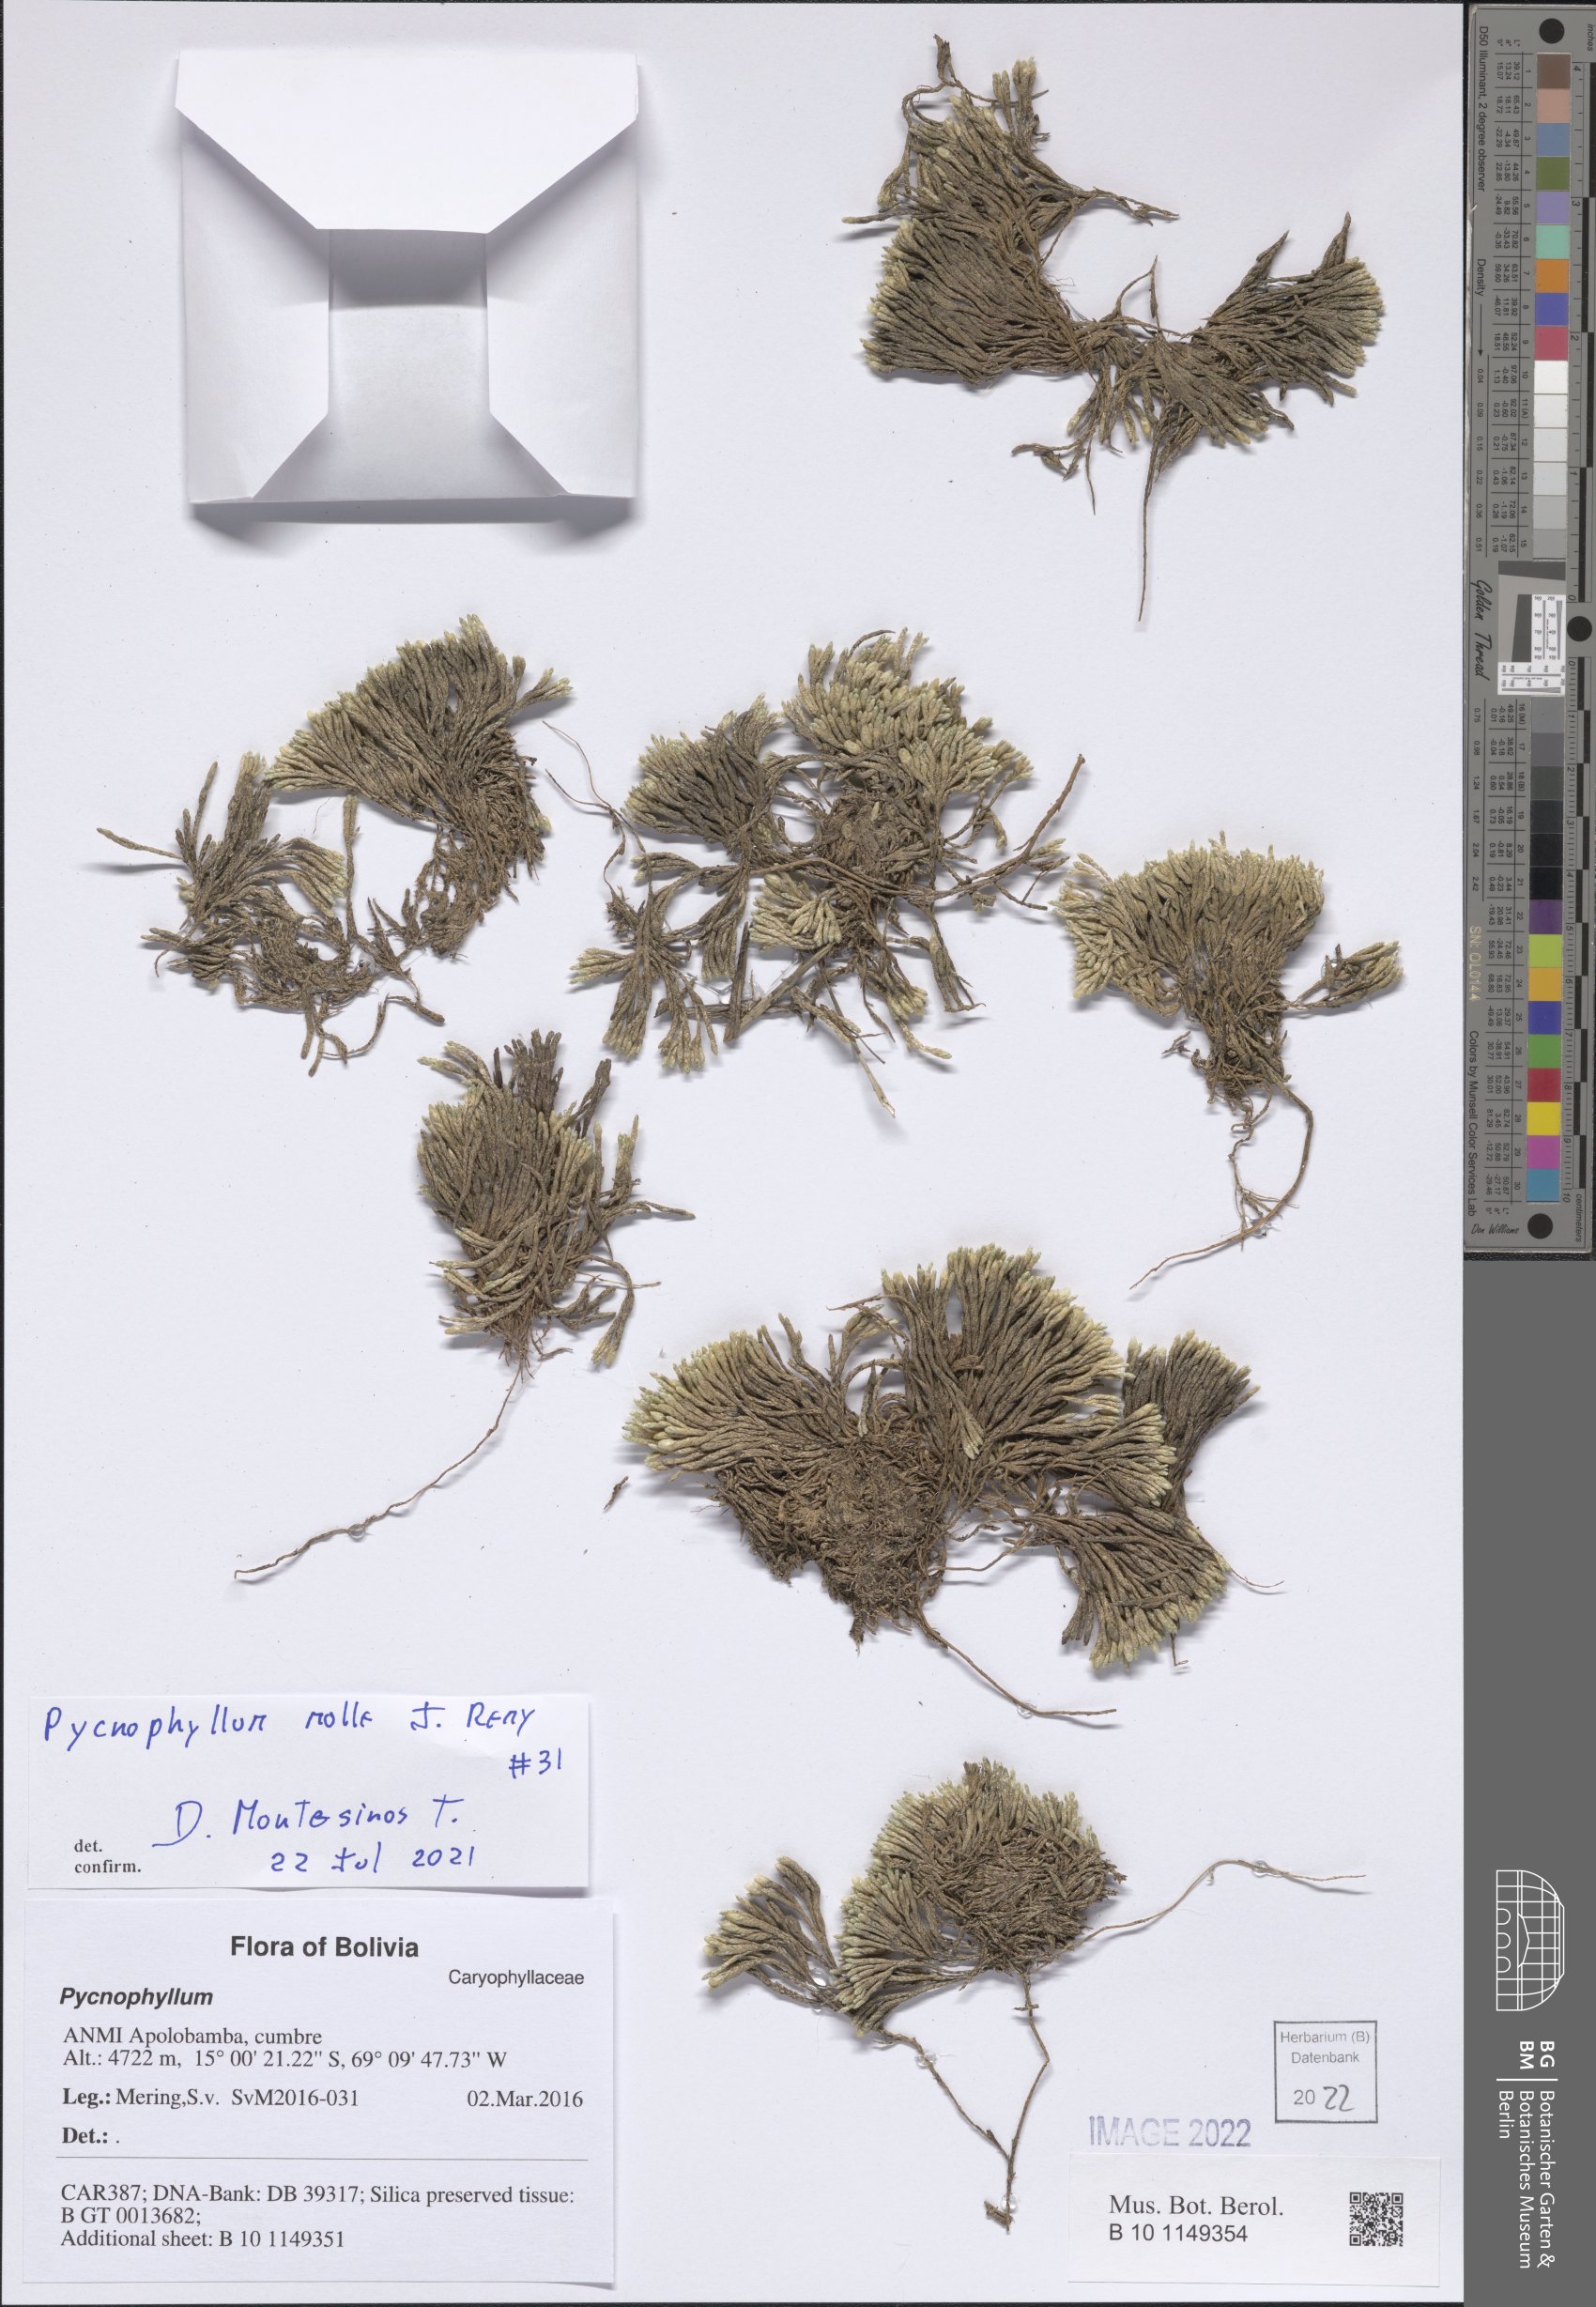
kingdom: Plantae
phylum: Tracheophyta
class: Magnoliopsida
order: Caryophyllales
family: Caryophyllaceae
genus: Pycnophyllum
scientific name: Pycnophyllum molle
